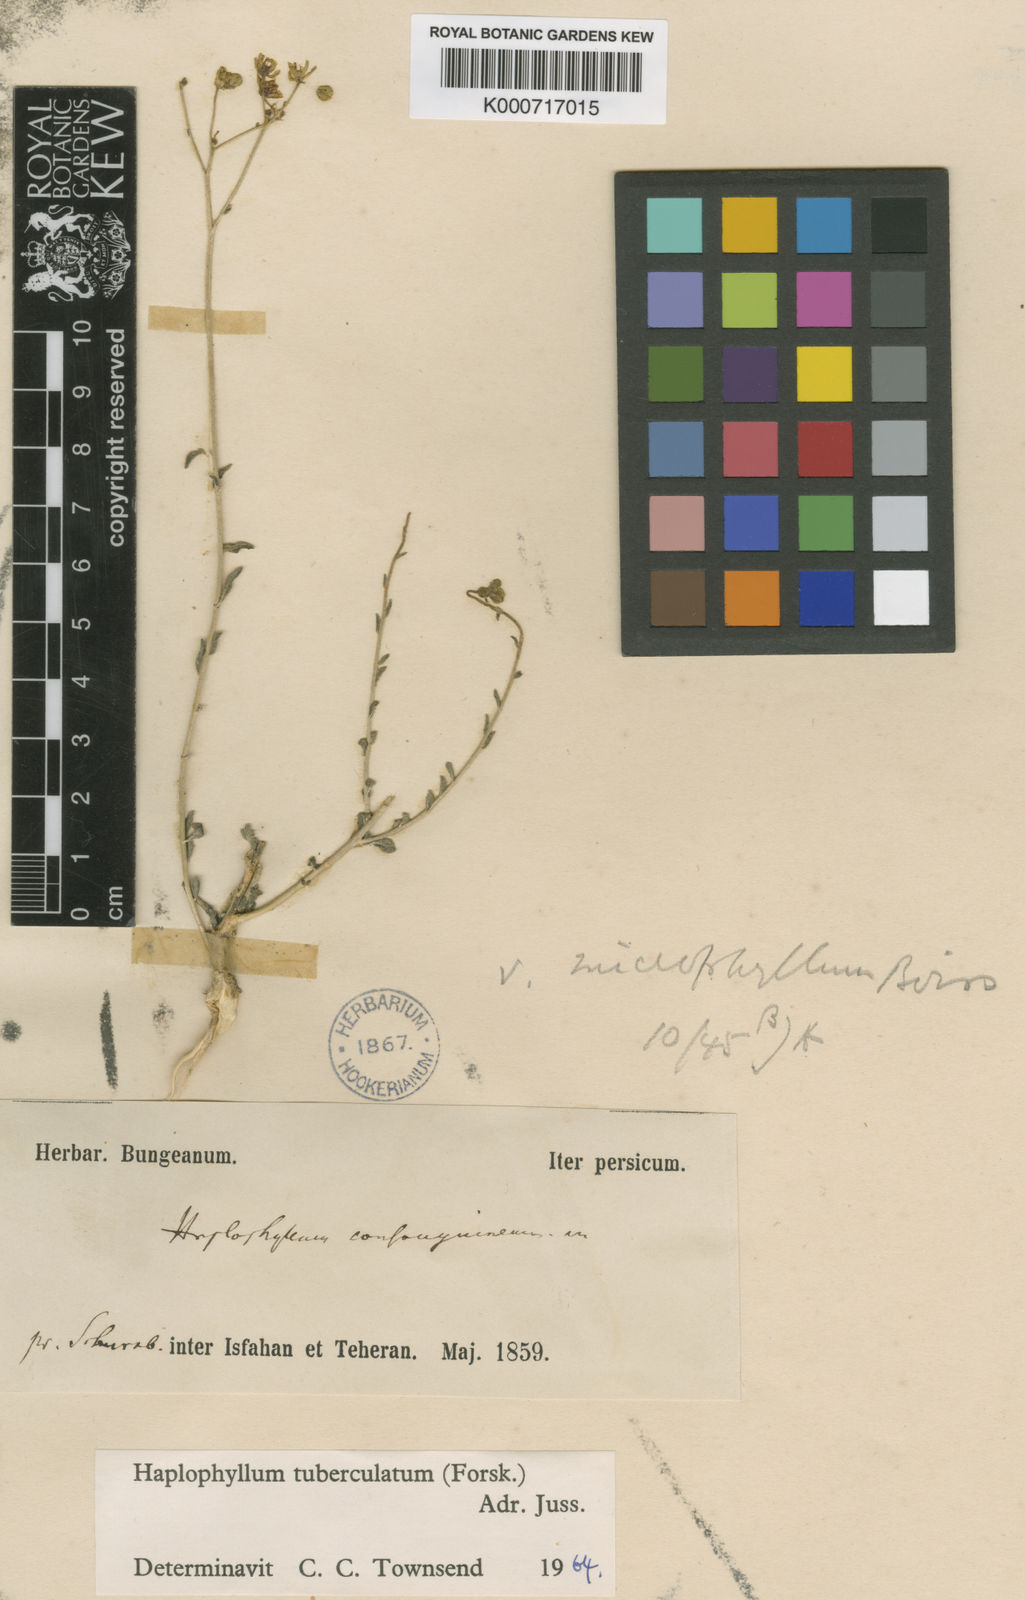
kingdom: Plantae
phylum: Tracheophyta
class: Magnoliopsida
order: Sapindales
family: Rutaceae
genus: Haplophyllum
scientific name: Haplophyllum tuberculatum
